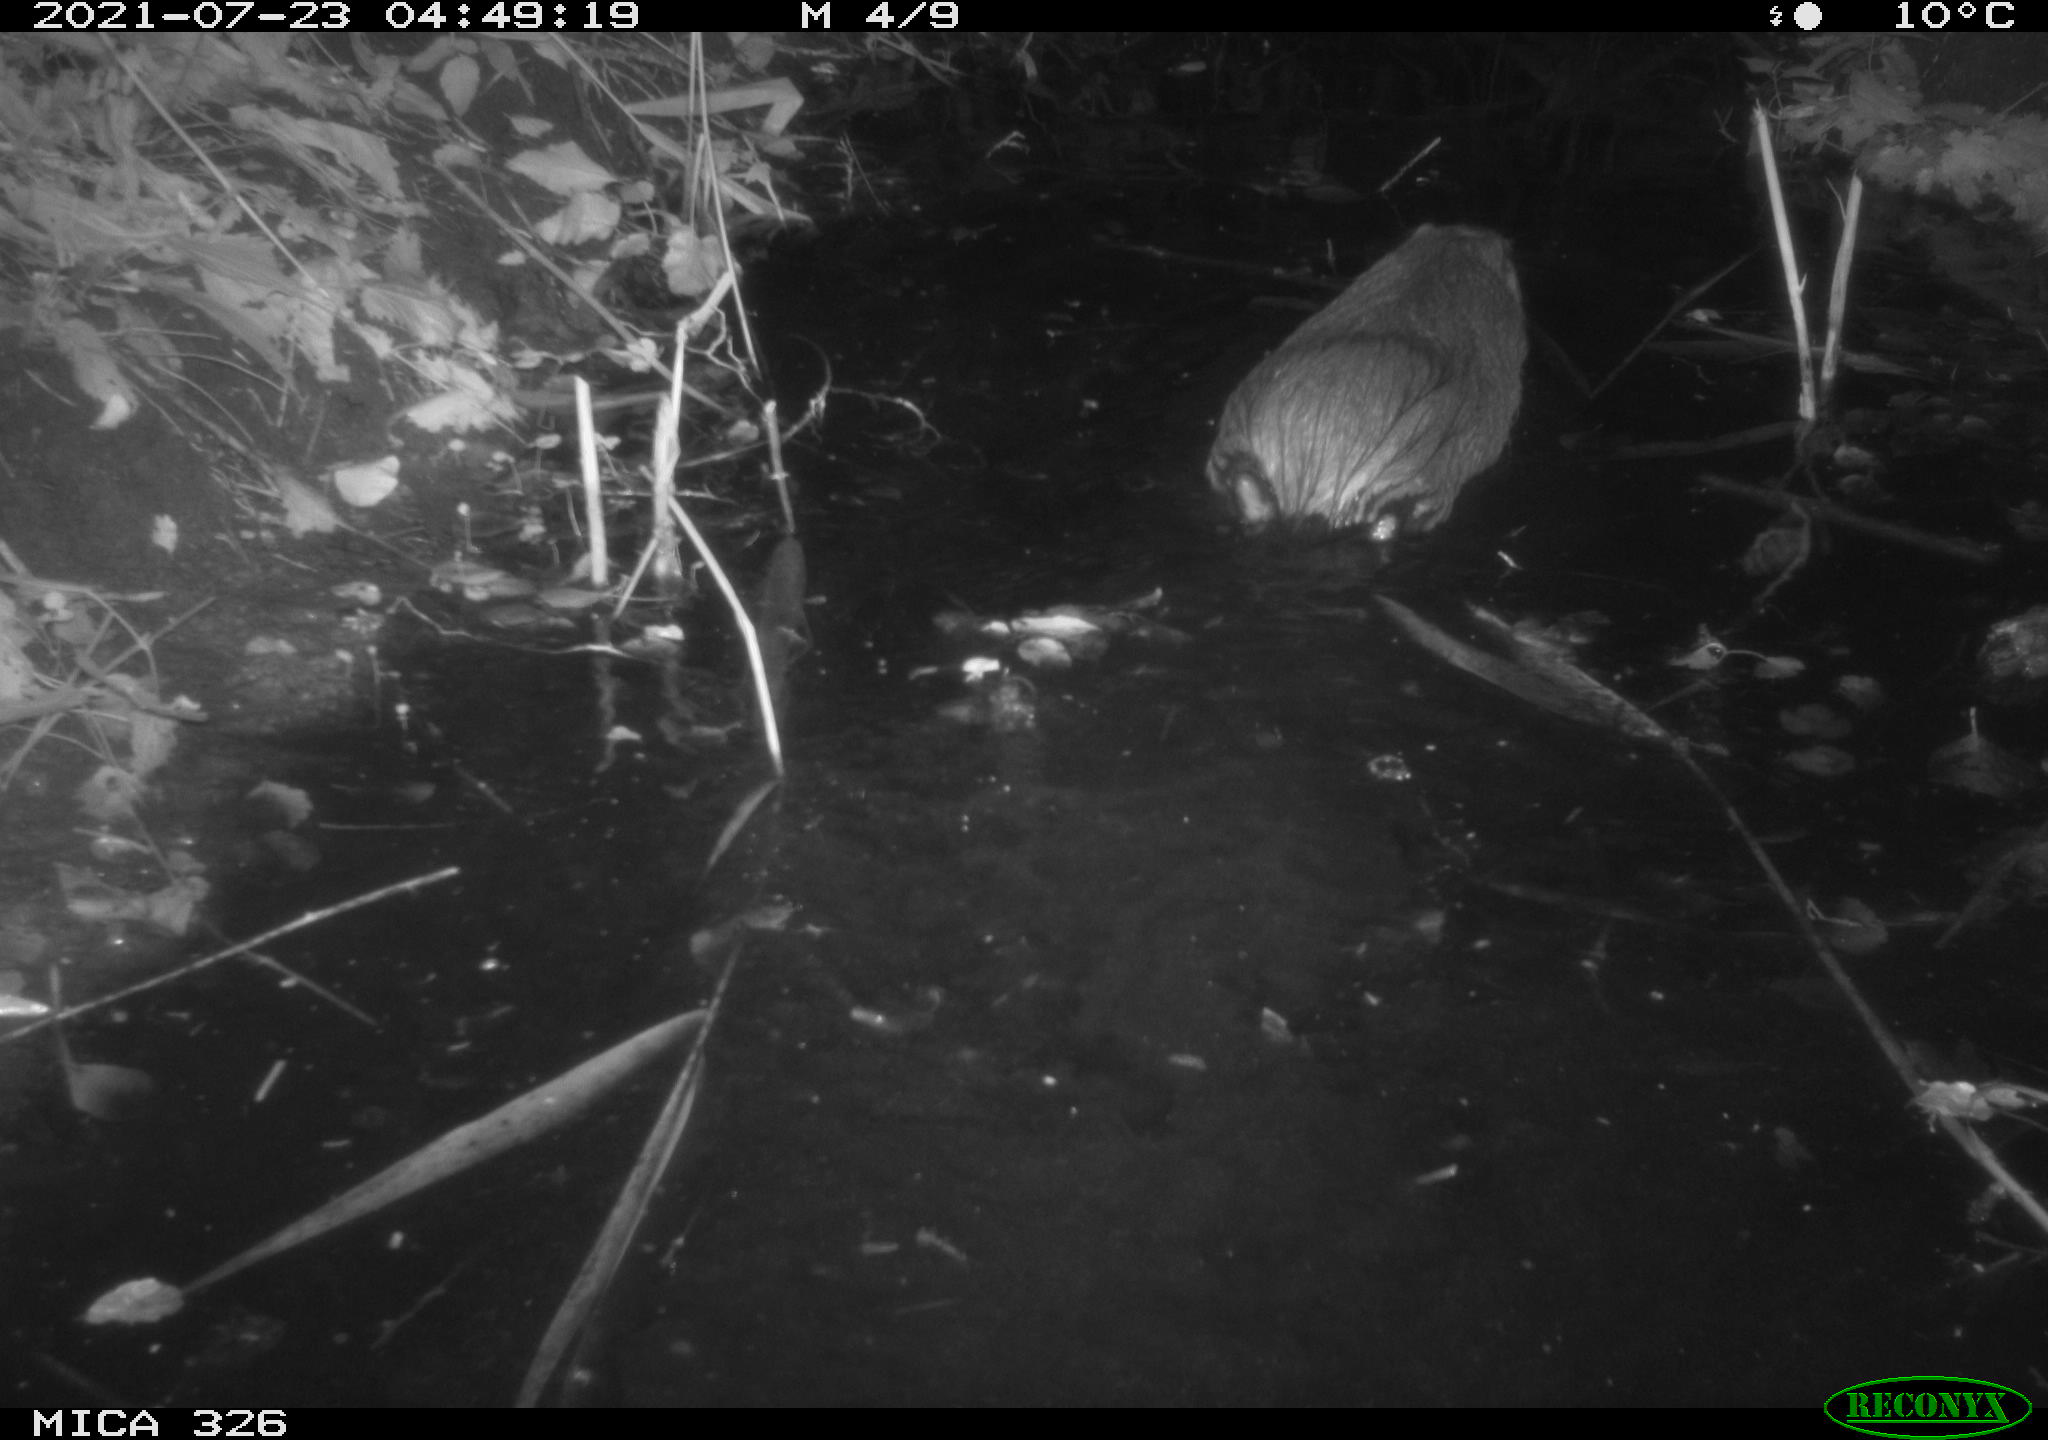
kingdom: Animalia
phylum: Chordata
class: Mammalia
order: Rodentia
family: Myocastoridae
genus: Myocastor
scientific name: Myocastor coypus
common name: Coypu
